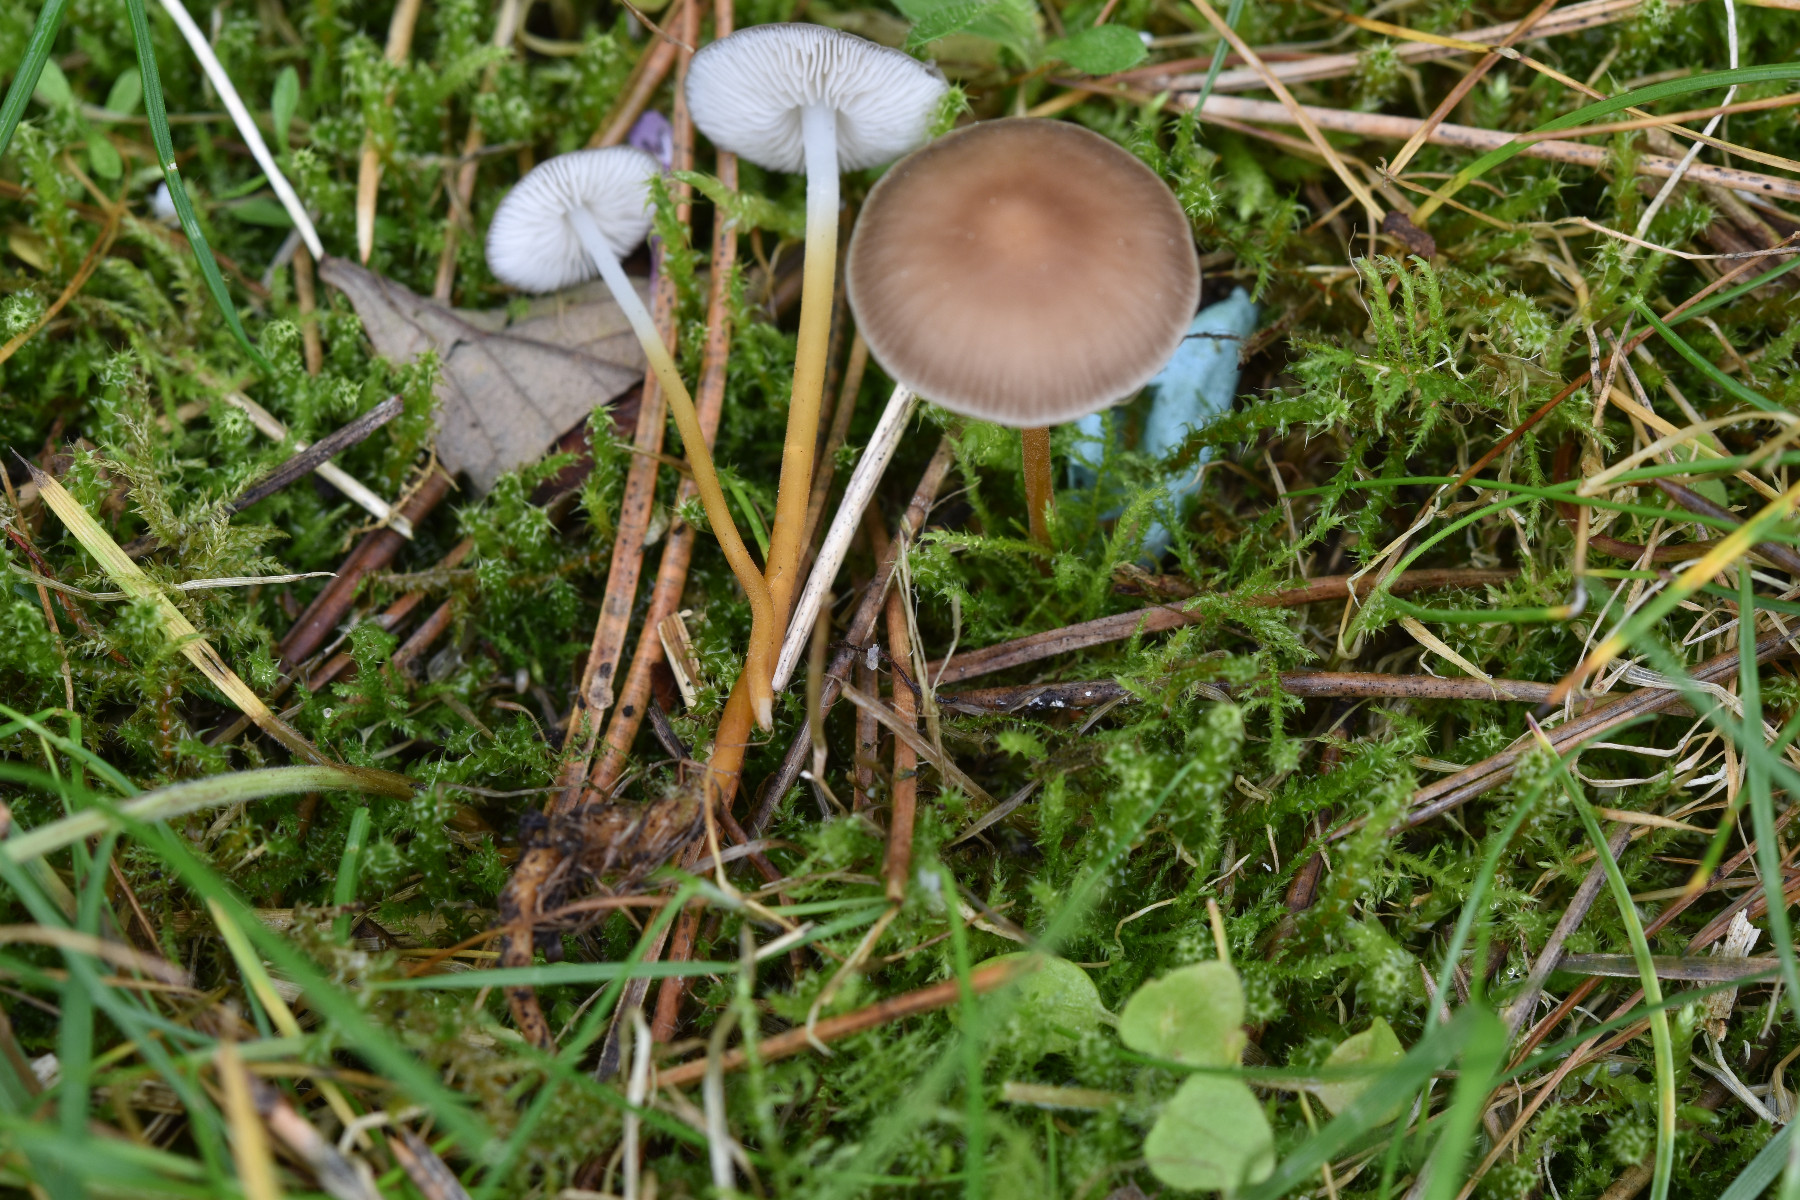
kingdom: Fungi
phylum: Basidiomycota
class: Agaricomycetes
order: Agaricales
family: Physalacriaceae
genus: Strobilurus
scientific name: Strobilurus tenacellus
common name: sommer-koglehat
